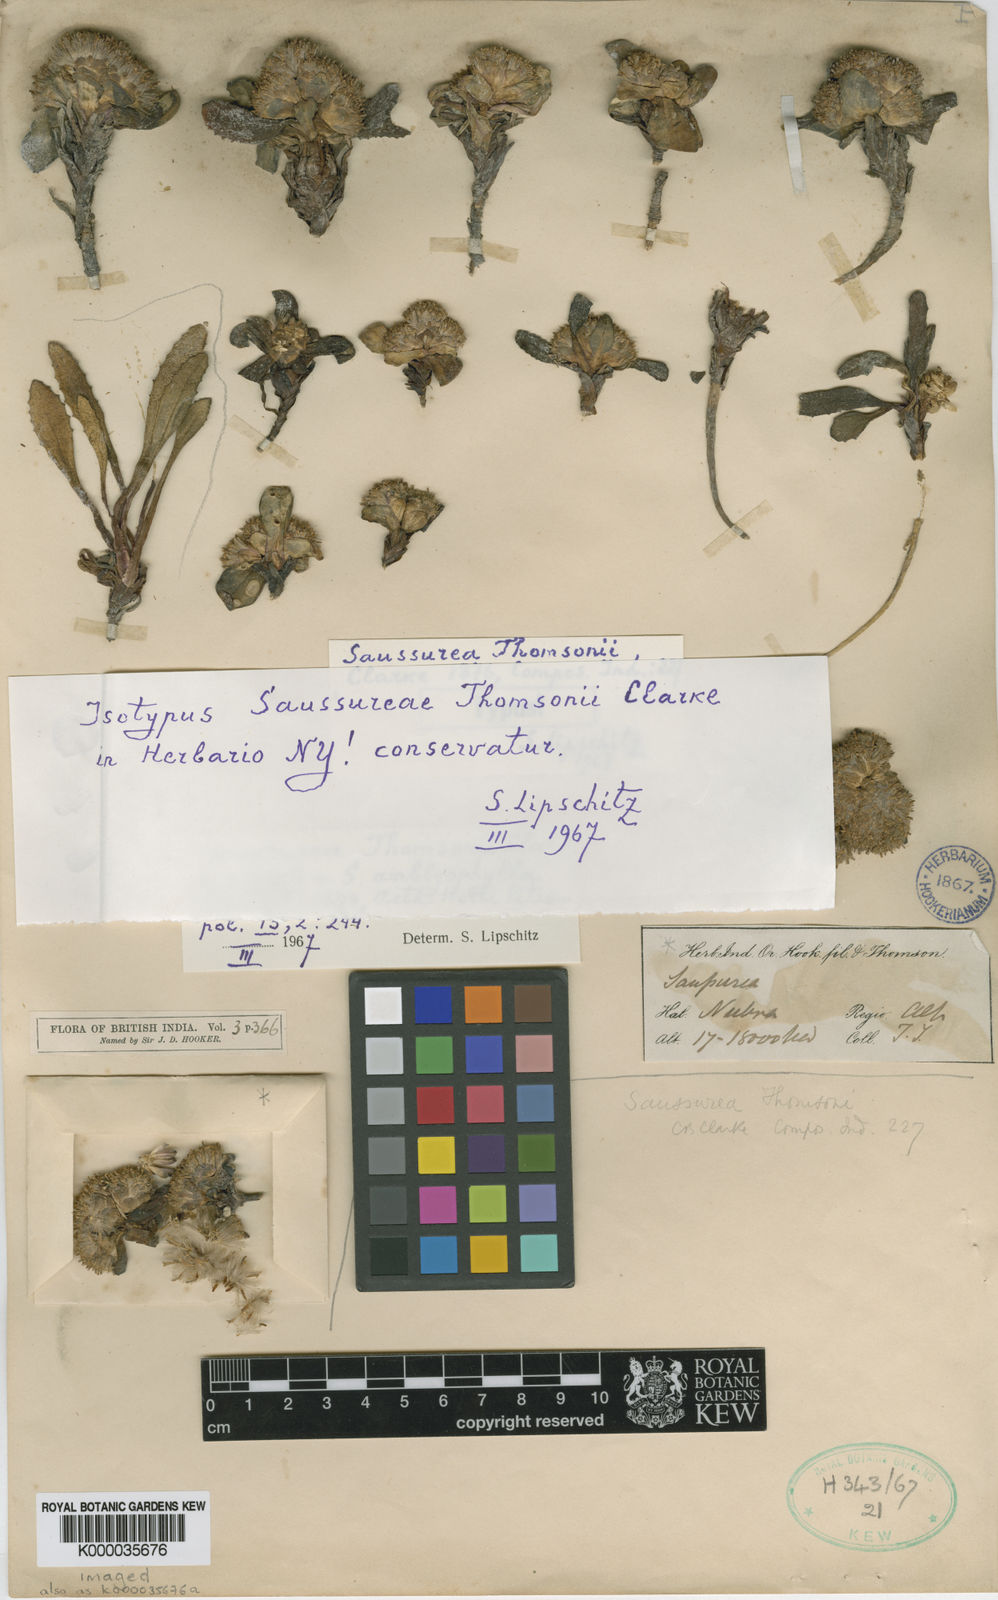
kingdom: Plantae
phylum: Tracheophyta
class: Magnoliopsida
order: Asterales
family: Asteraceae
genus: Saussurea
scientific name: Saussurea thomsonii
